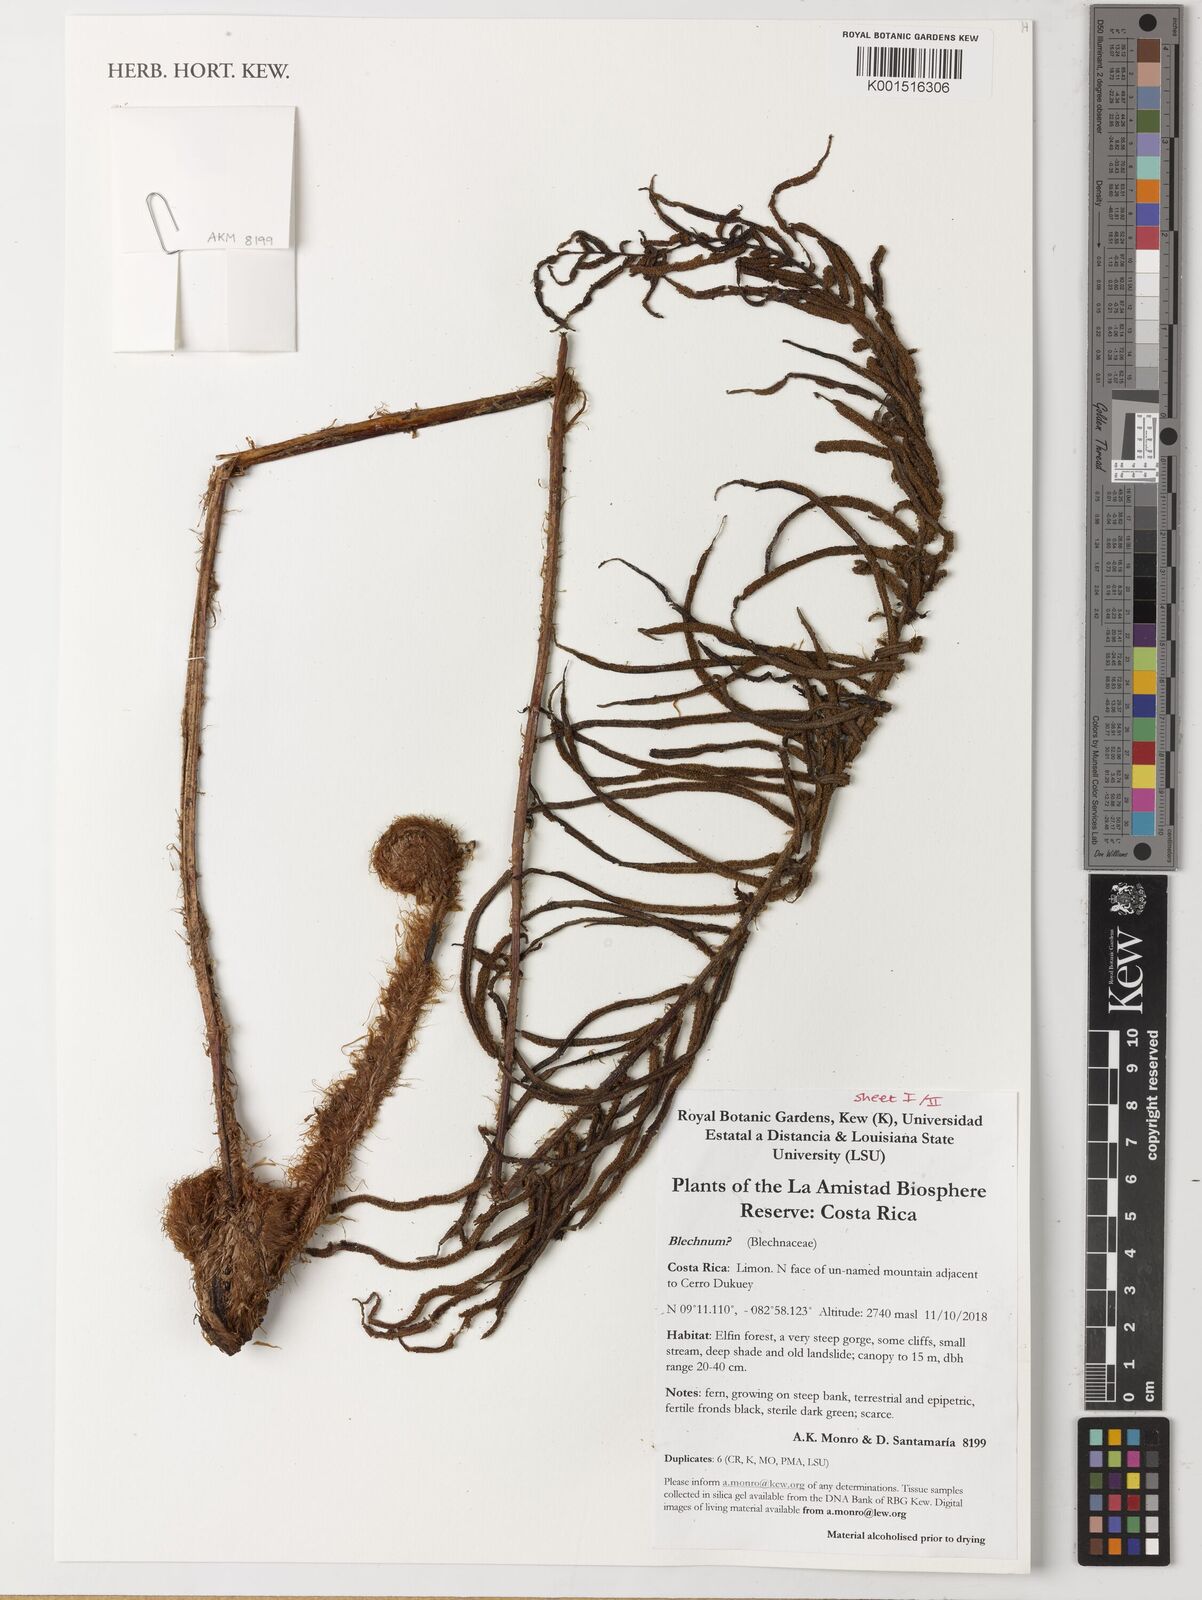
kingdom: Plantae
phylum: Tracheophyta
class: Polypodiopsida
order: Polypodiales
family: Blechnaceae
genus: Blechnum
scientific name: Blechnum
